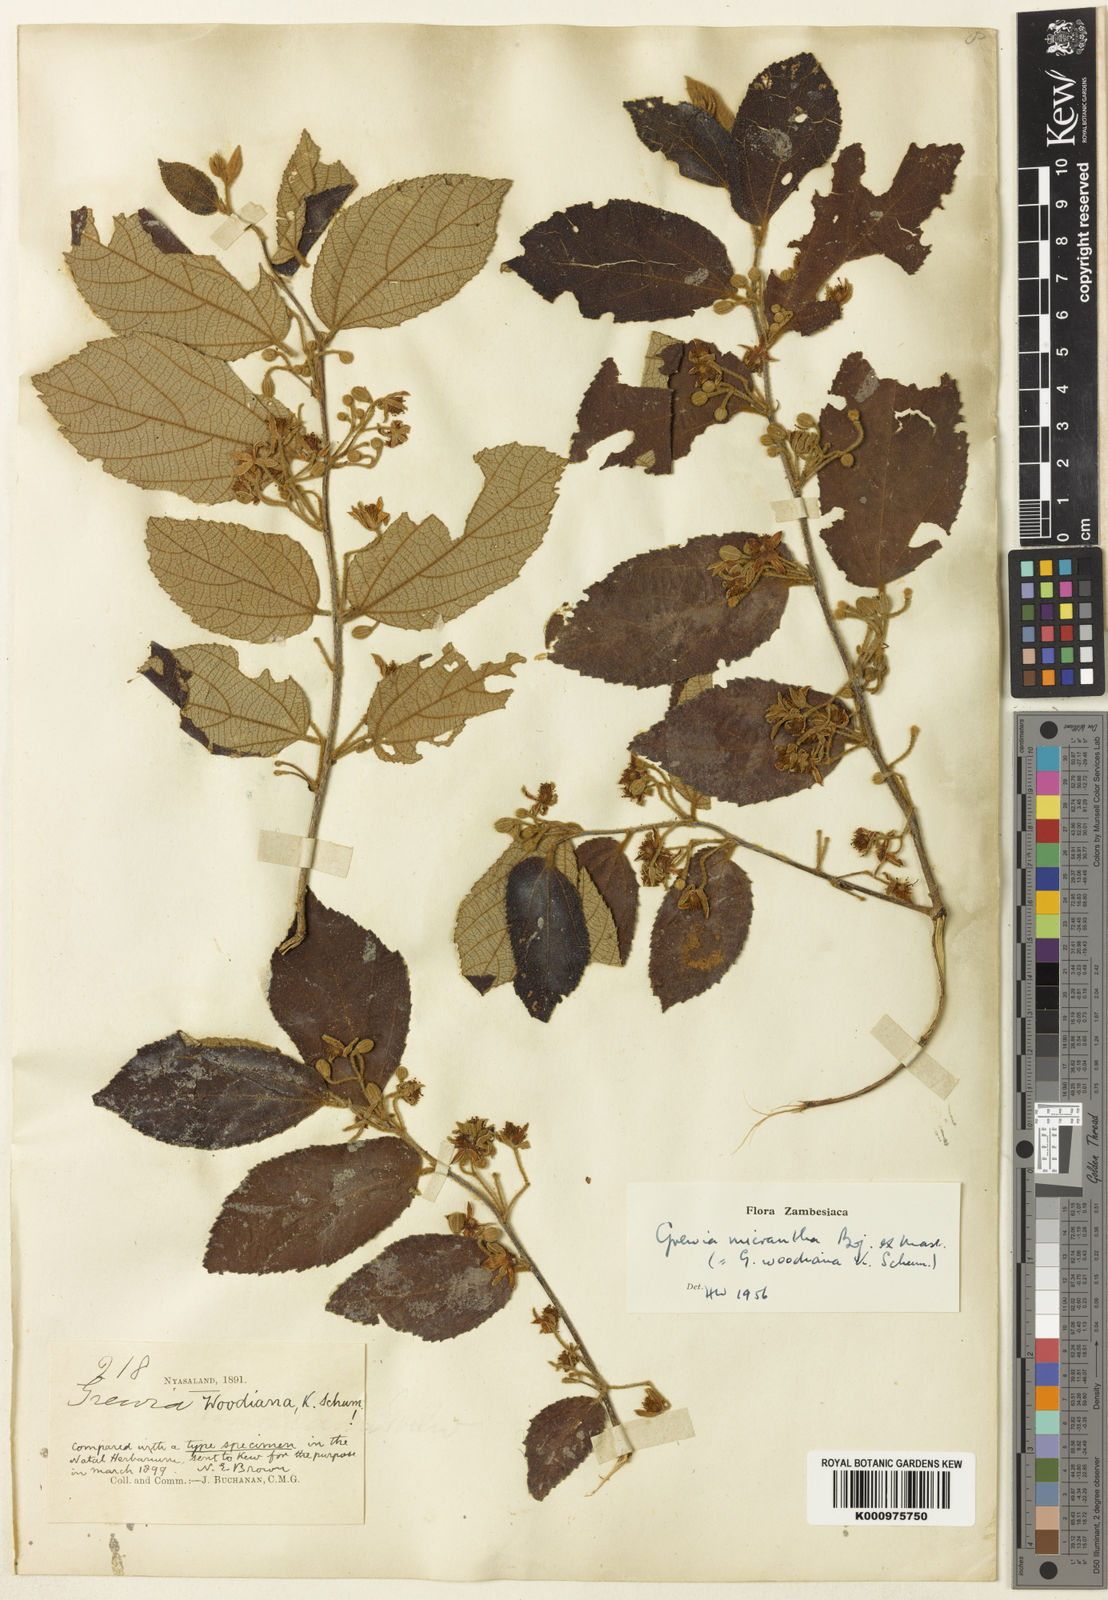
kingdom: Plantae
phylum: Tracheophyta
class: Magnoliopsida
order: Malvales
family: Malvaceae
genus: Grewia
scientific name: Grewia
